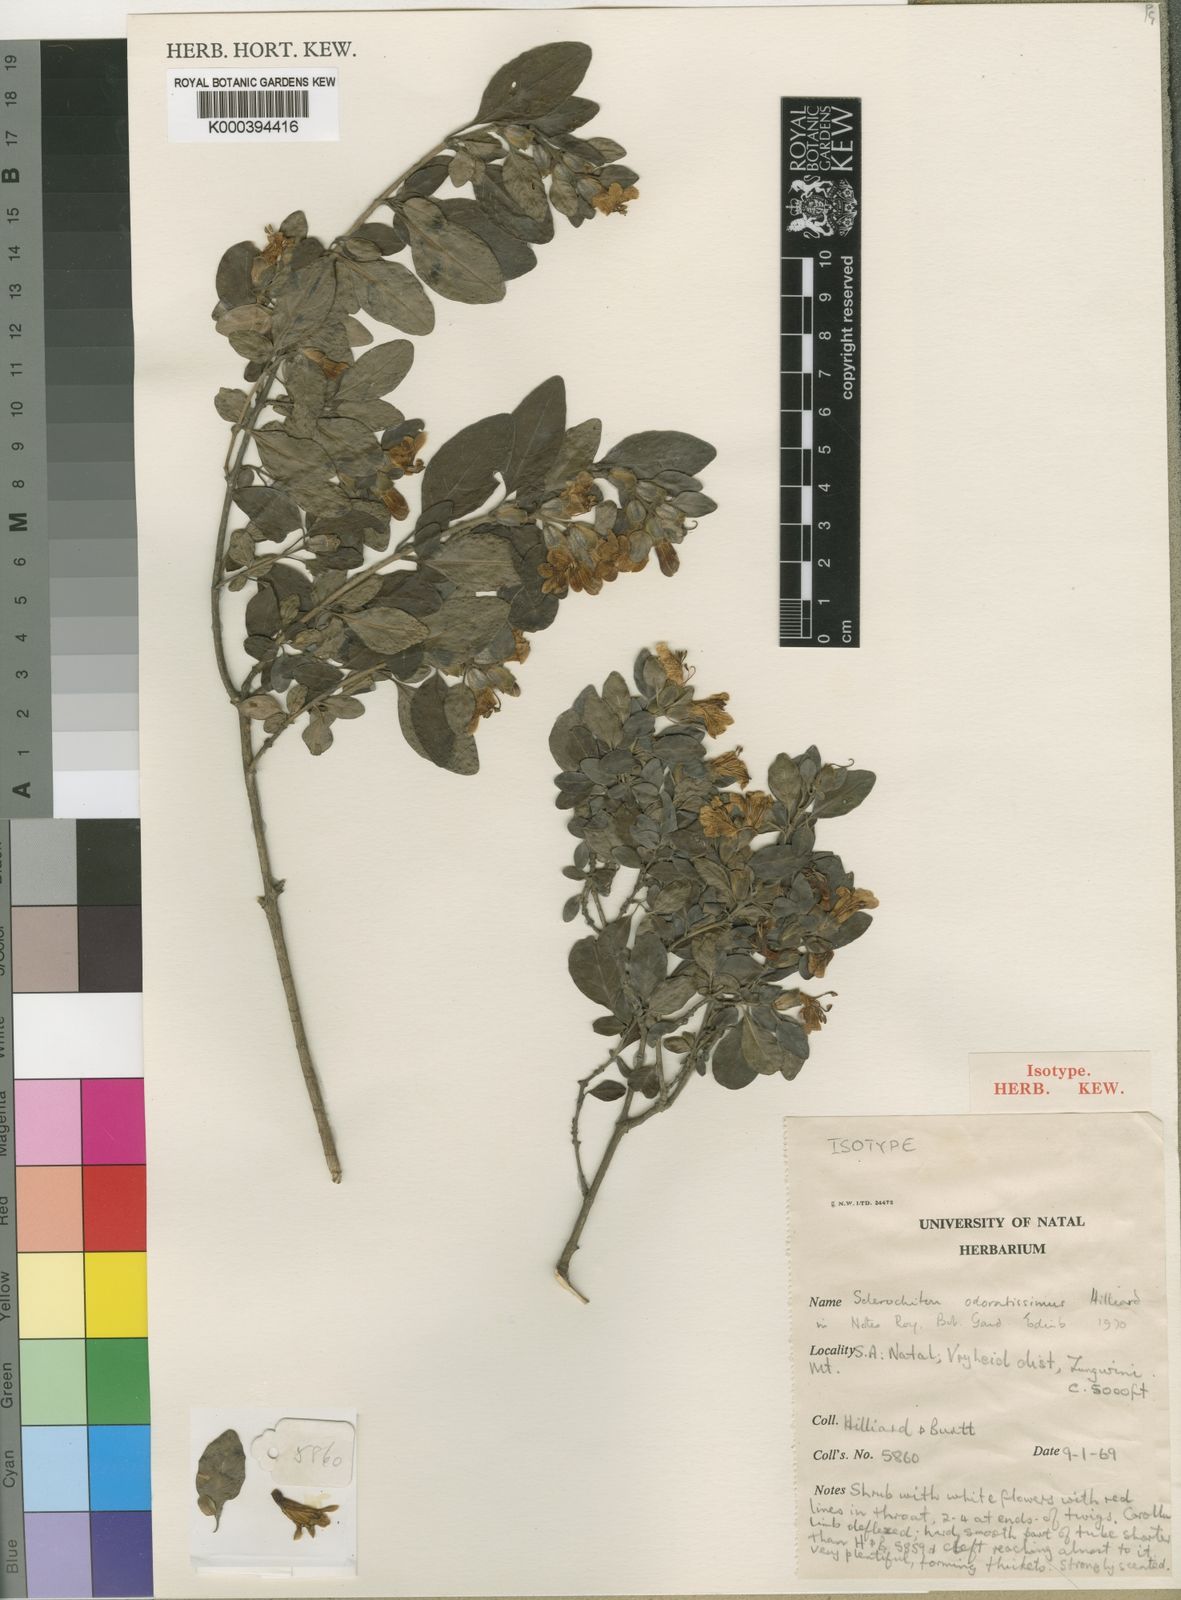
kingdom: Plantae
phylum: Tracheophyta
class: Magnoliopsida
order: Lamiales
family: Acanthaceae
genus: Sclerochiton
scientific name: Sclerochiton odoratissimus
